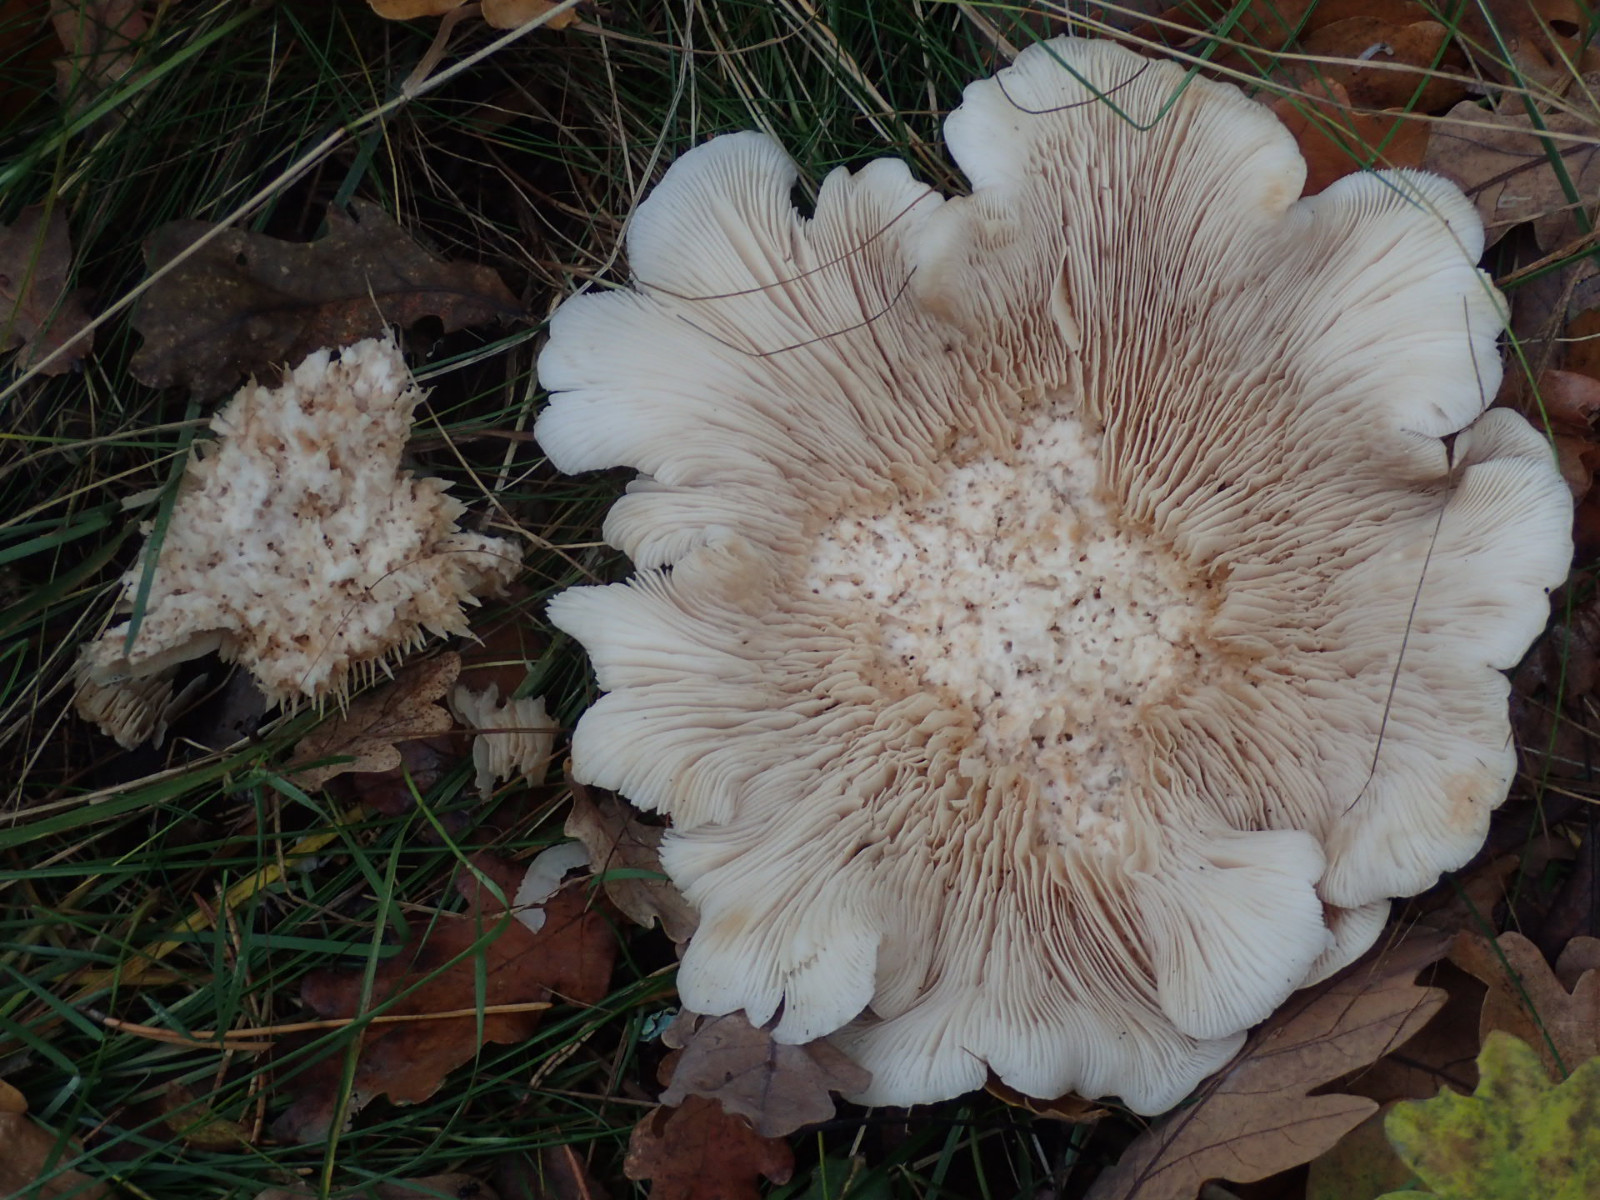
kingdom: Fungi
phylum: Basidiomycota
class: Agaricomycetes
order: Agaricales
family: Tricholomataceae
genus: Clitocybe
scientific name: Clitocybe nebularis
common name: tåge-tragthat
